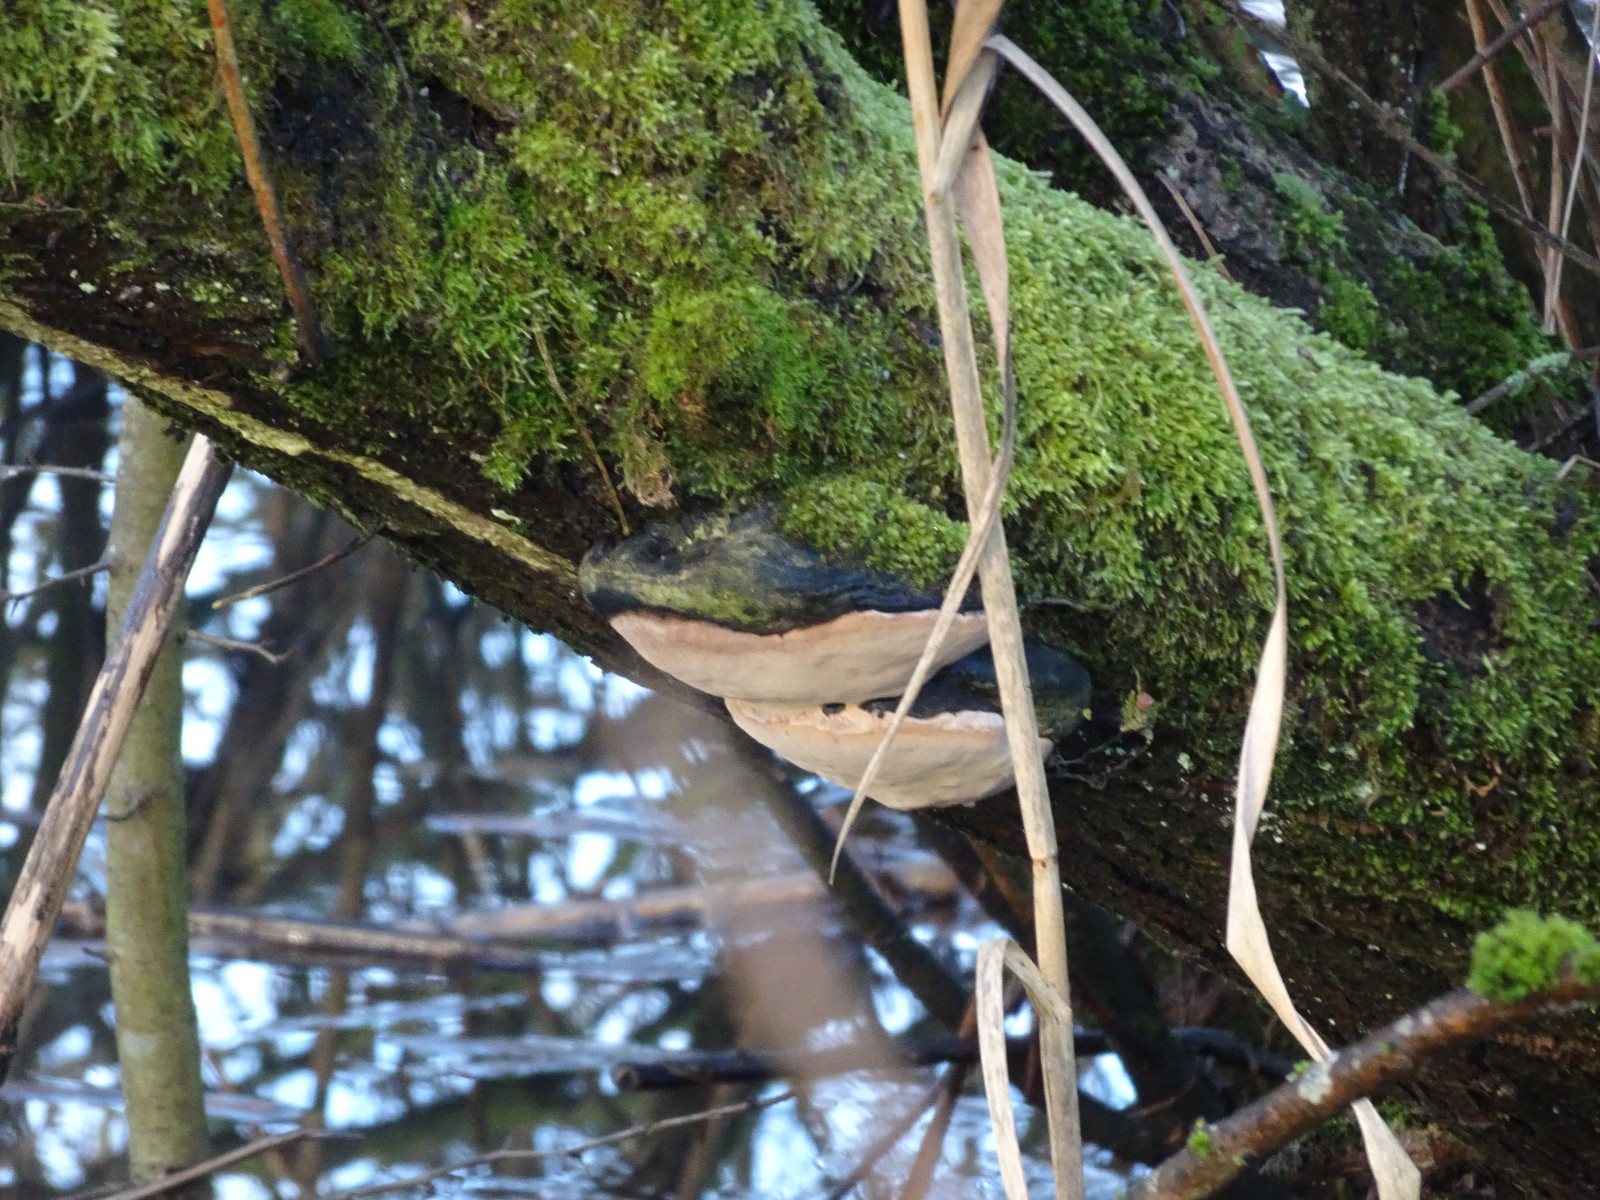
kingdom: Fungi
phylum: Basidiomycota
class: Agaricomycetes
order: Hymenochaetales
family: Hymenochaetaceae
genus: Phellinus
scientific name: Phellinus igniarius
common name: almindelig ildporesvamp
